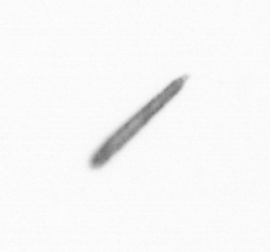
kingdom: Chromista
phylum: Ochrophyta
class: Bacillariophyceae
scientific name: Bacillariophyceae
